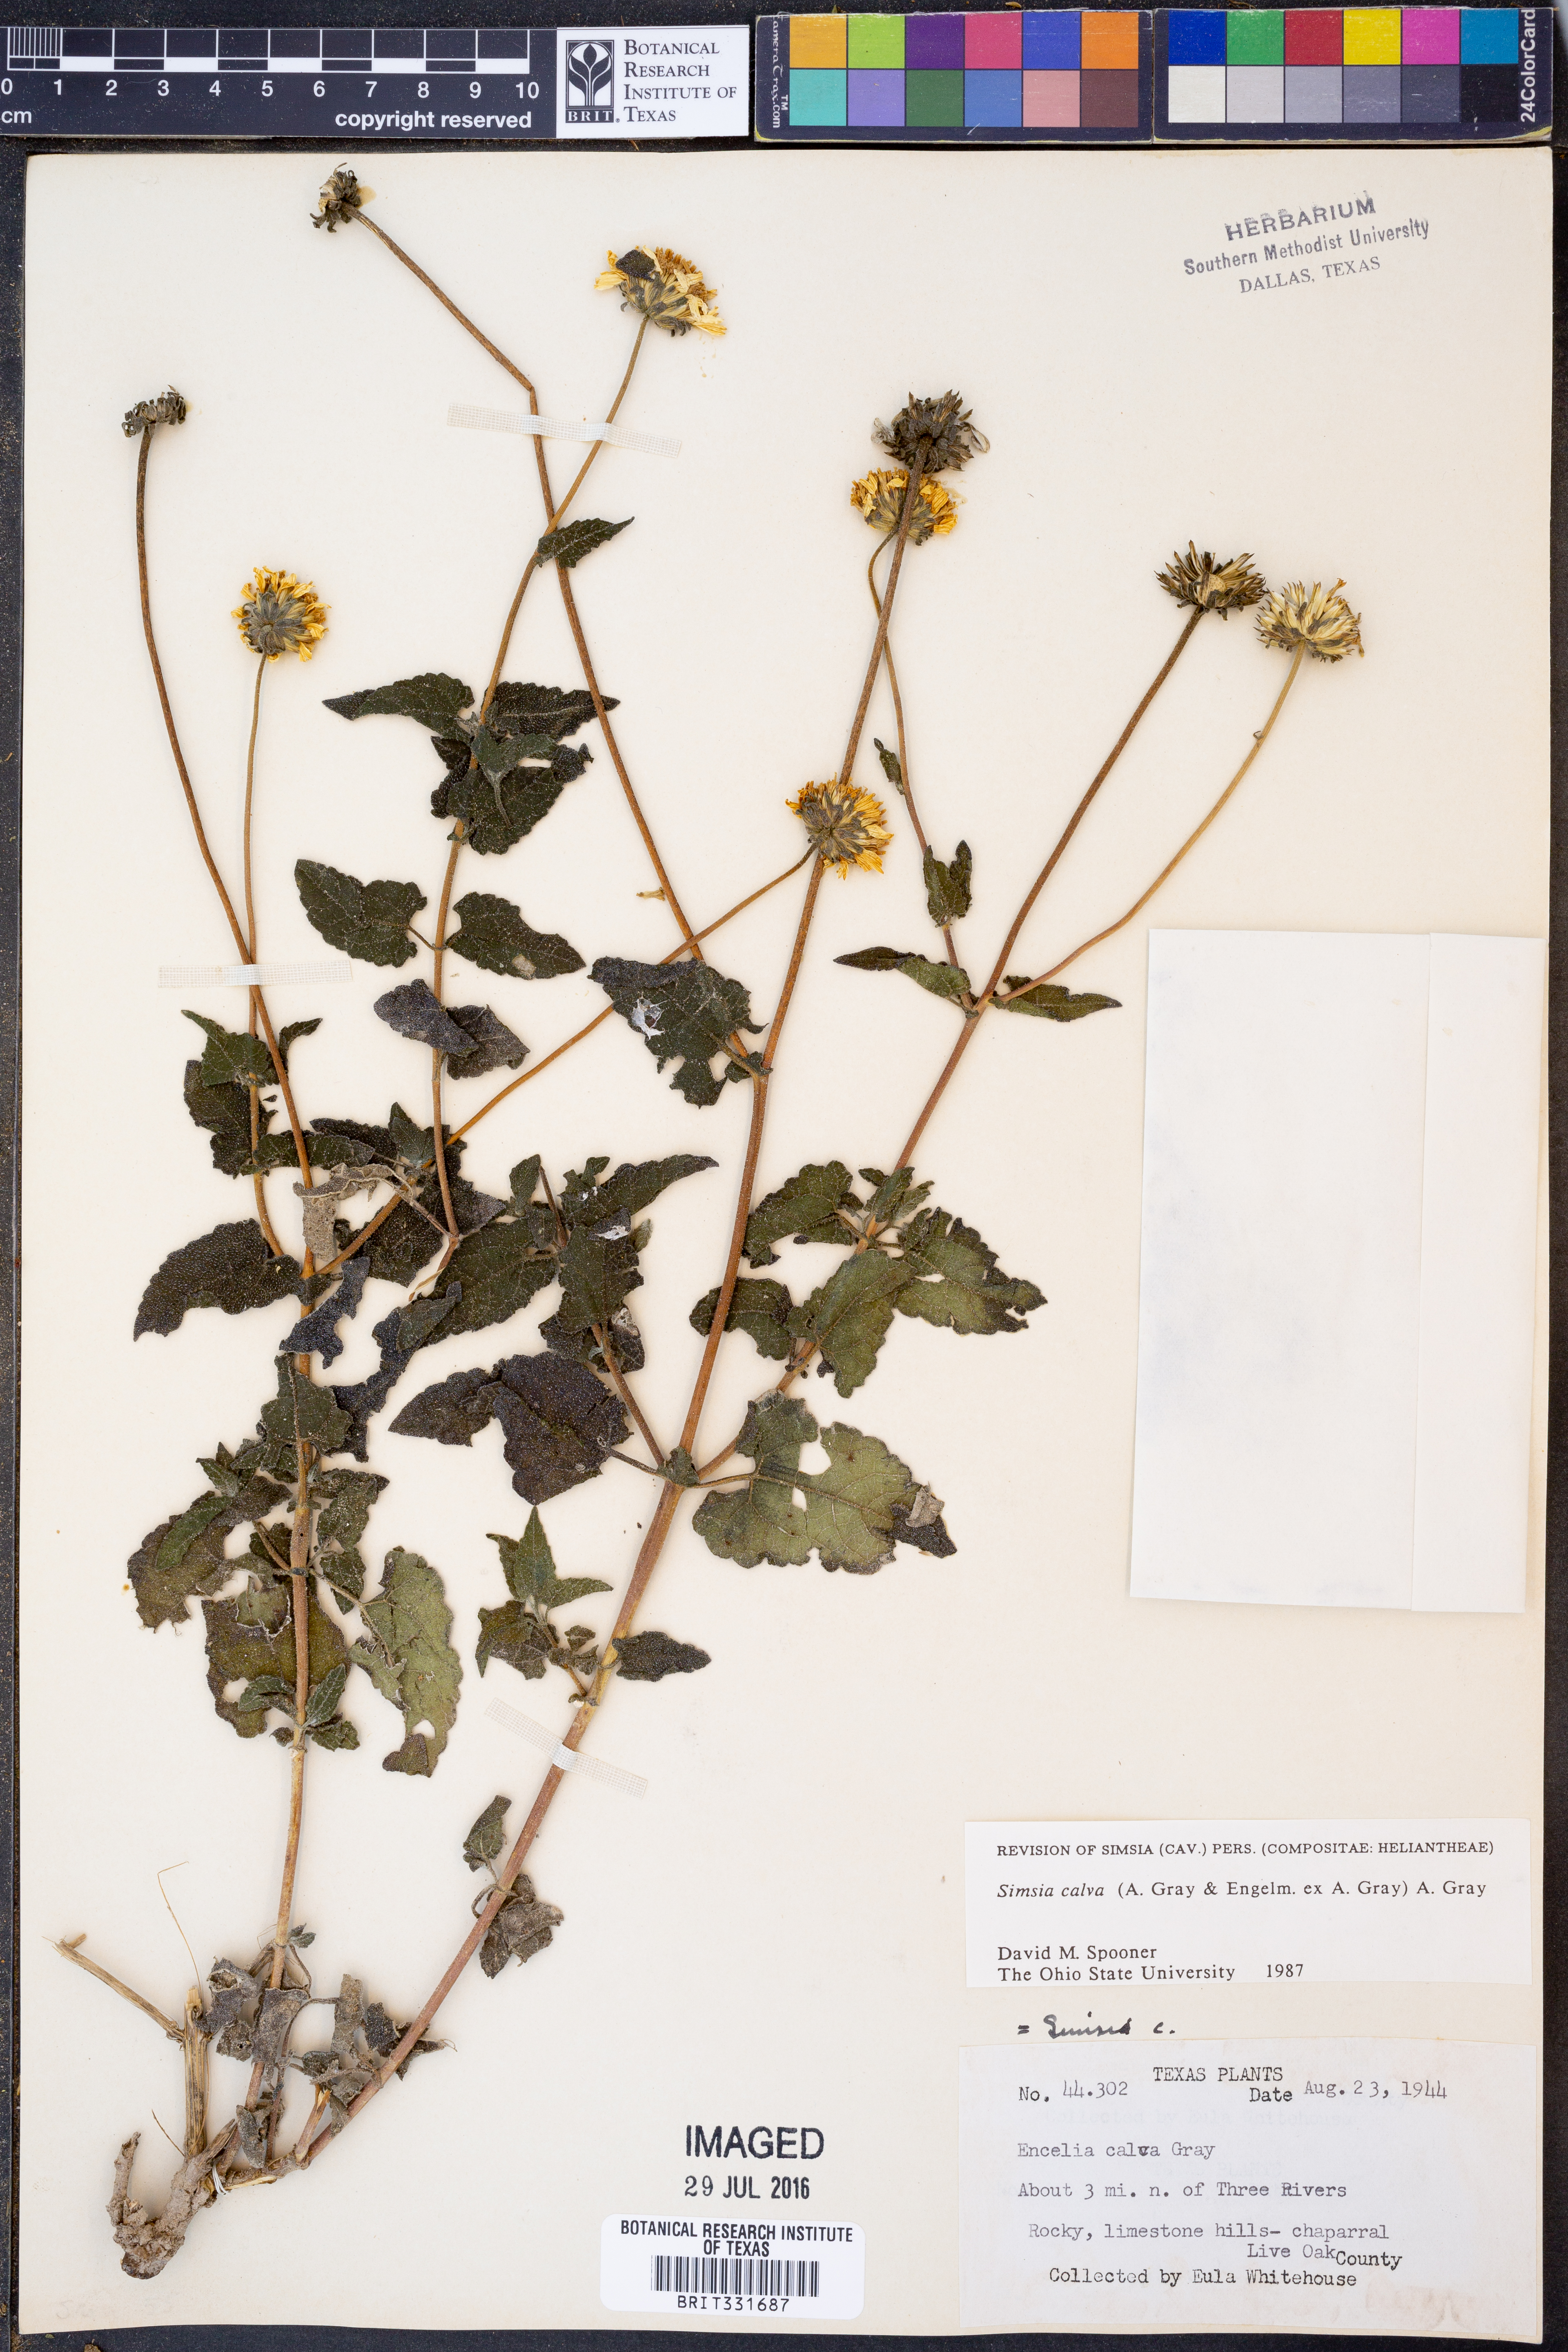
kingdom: Plantae
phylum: Tracheophyta
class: Magnoliopsida
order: Asterales
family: Asteraceae
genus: Simsia
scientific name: Simsia calva
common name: Awnless bush-sunflower
